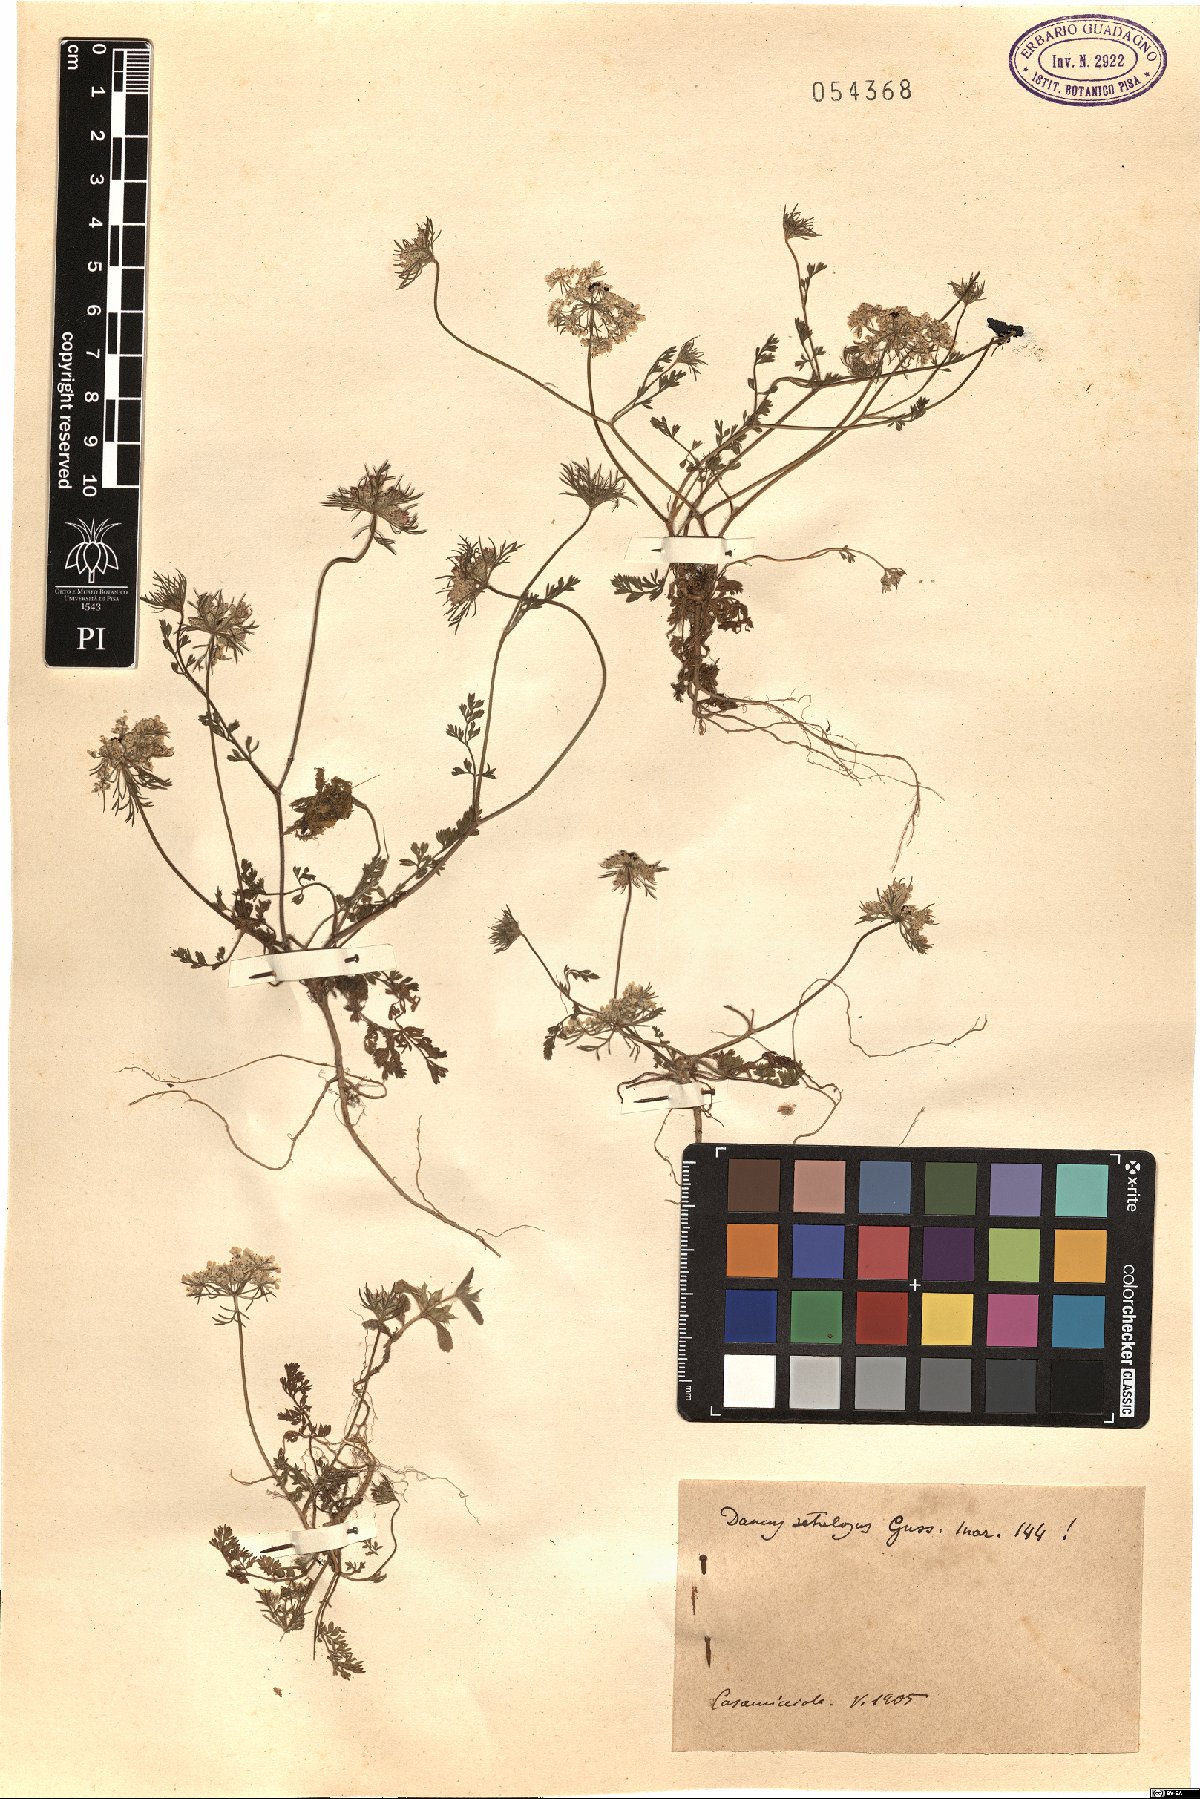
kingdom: Plantae
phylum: Tracheophyta
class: Magnoliopsida
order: Apiales
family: Apiaceae
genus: Daucus
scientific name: Daucus guttatus
